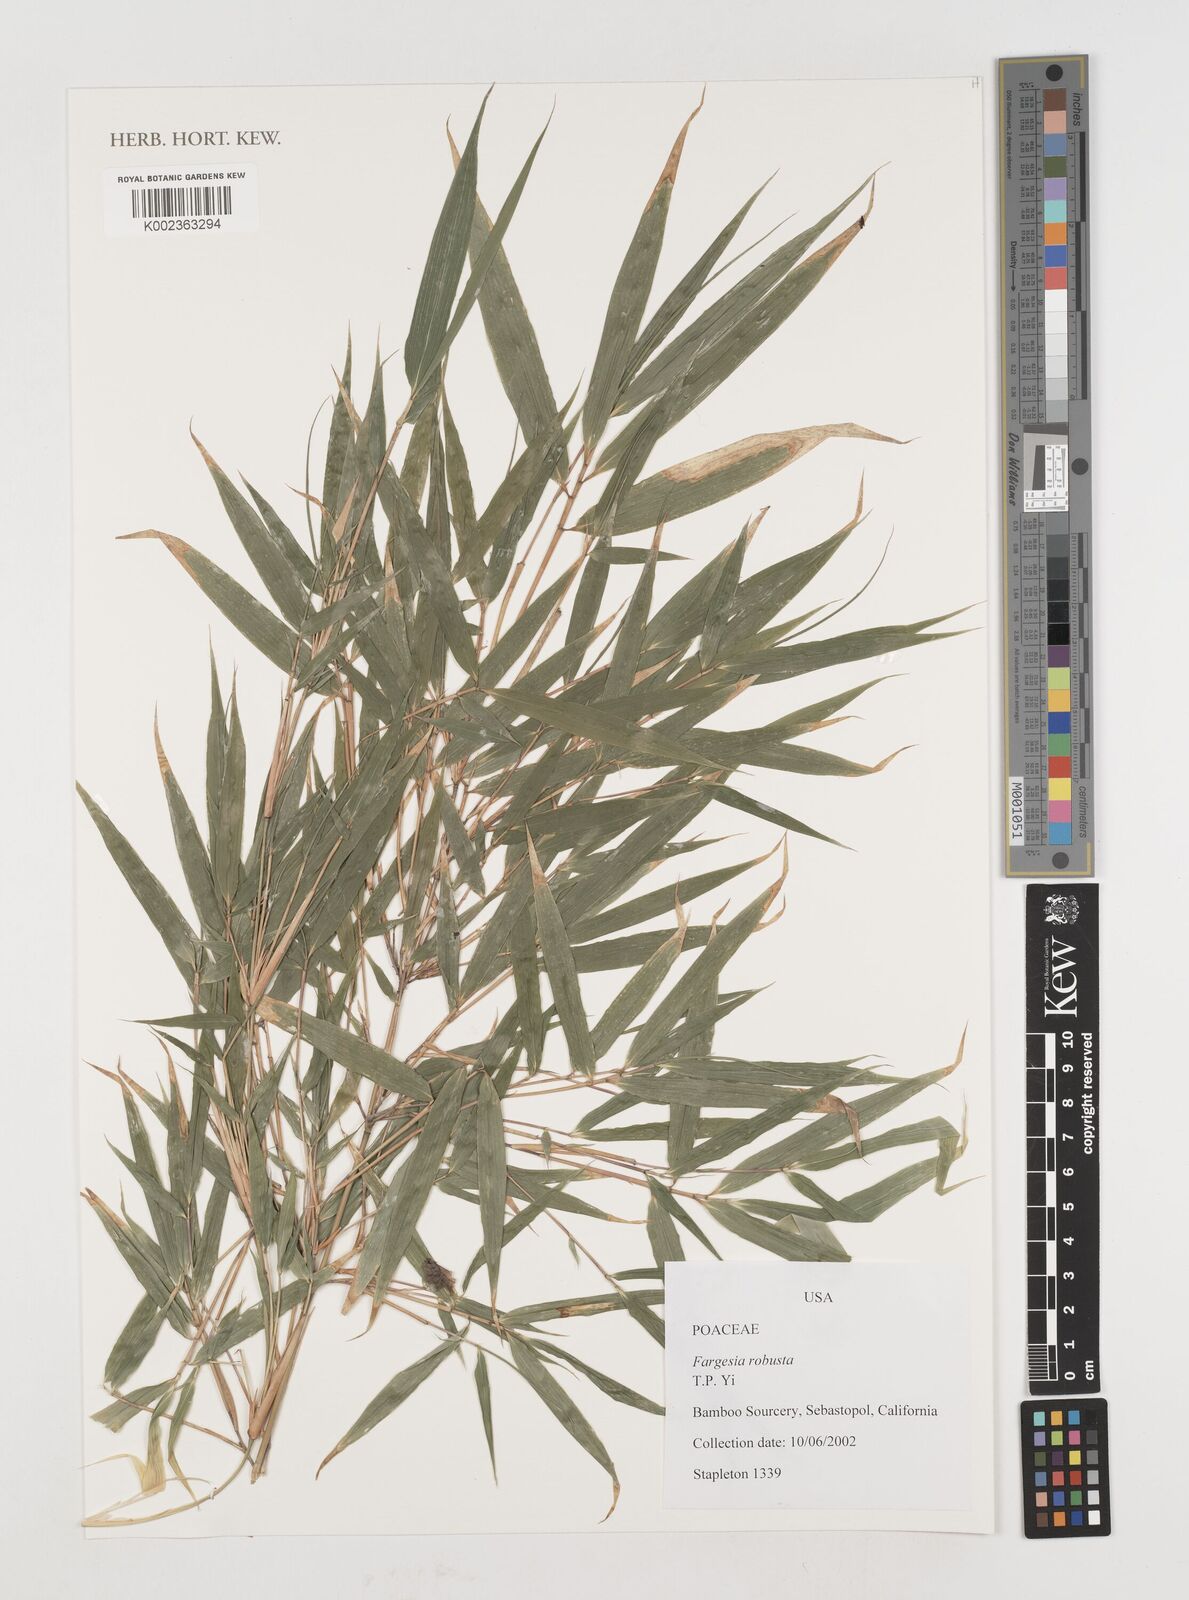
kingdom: Plantae
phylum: Tracheophyta
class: Liliopsida
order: Poales
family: Poaceae
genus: Fargesia
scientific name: Fargesia robusta
